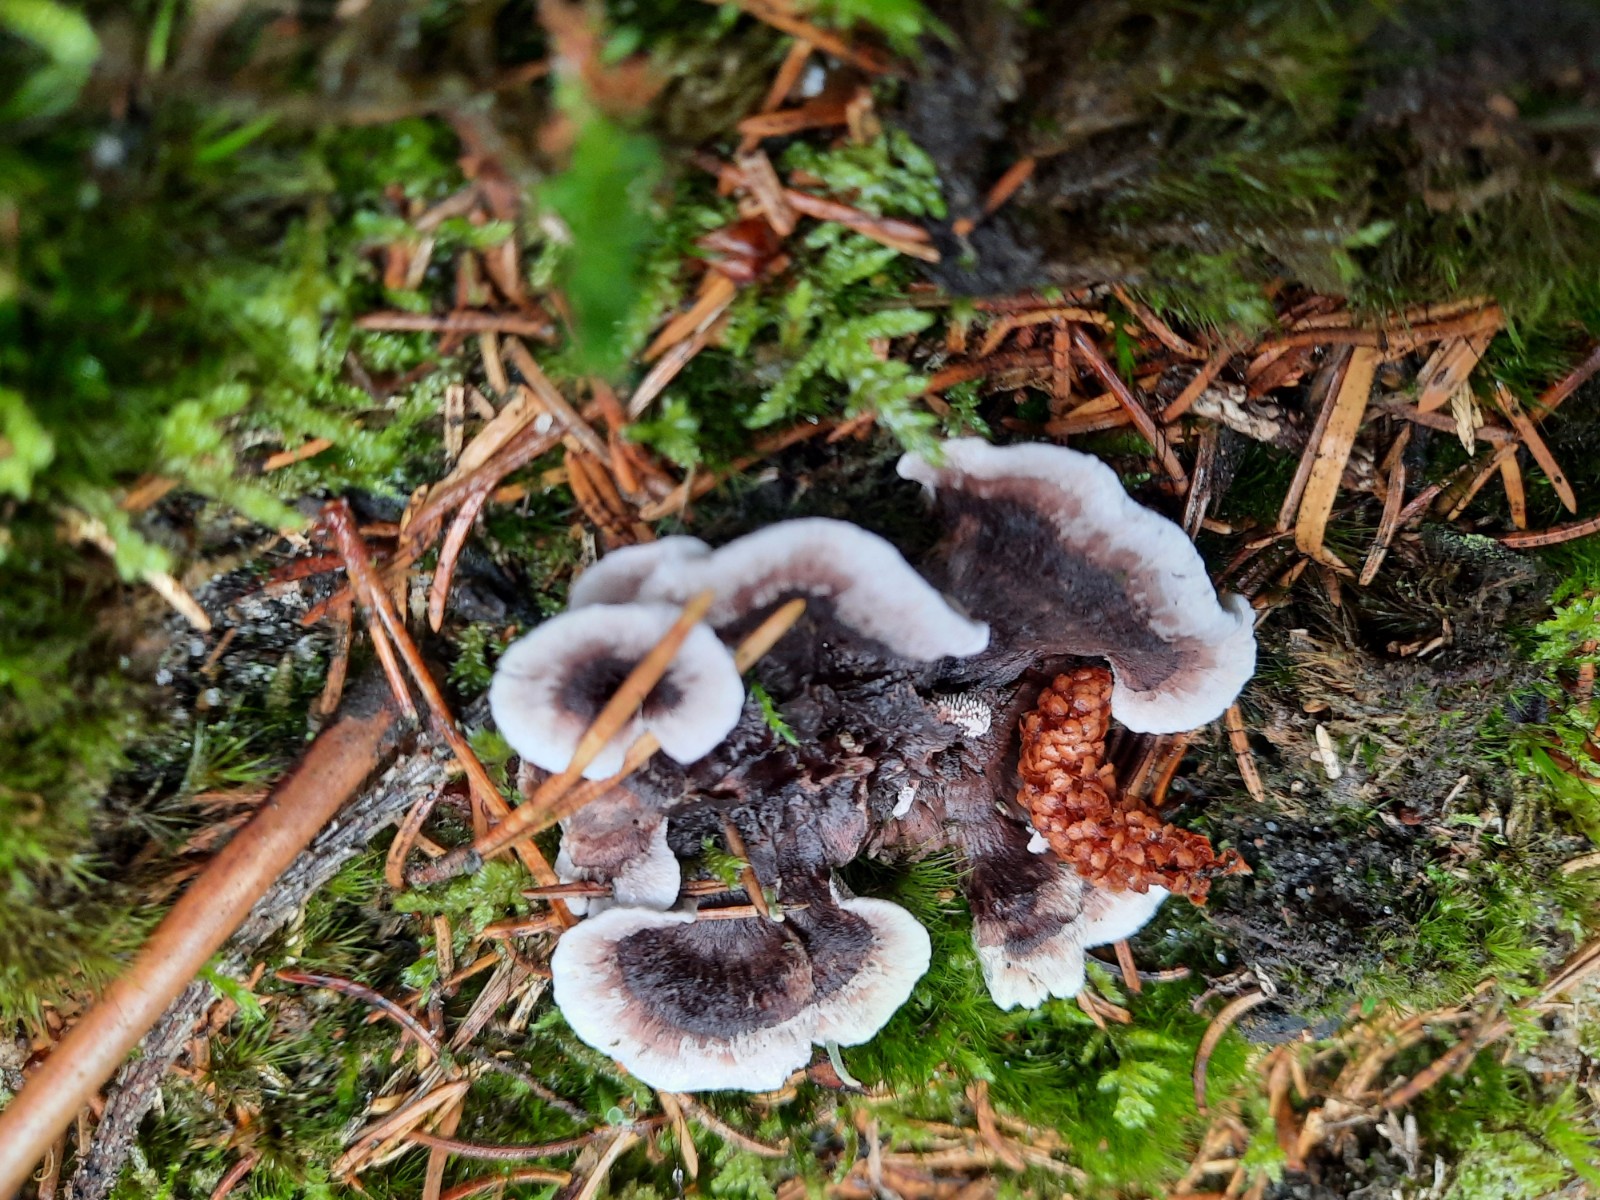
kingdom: Fungi
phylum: Basidiomycota
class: Agaricomycetes
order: Thelephorales
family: Thelephoraceae
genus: Phellodon
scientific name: Phellodon tomentosus
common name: vellugtende duftpigsvamp
